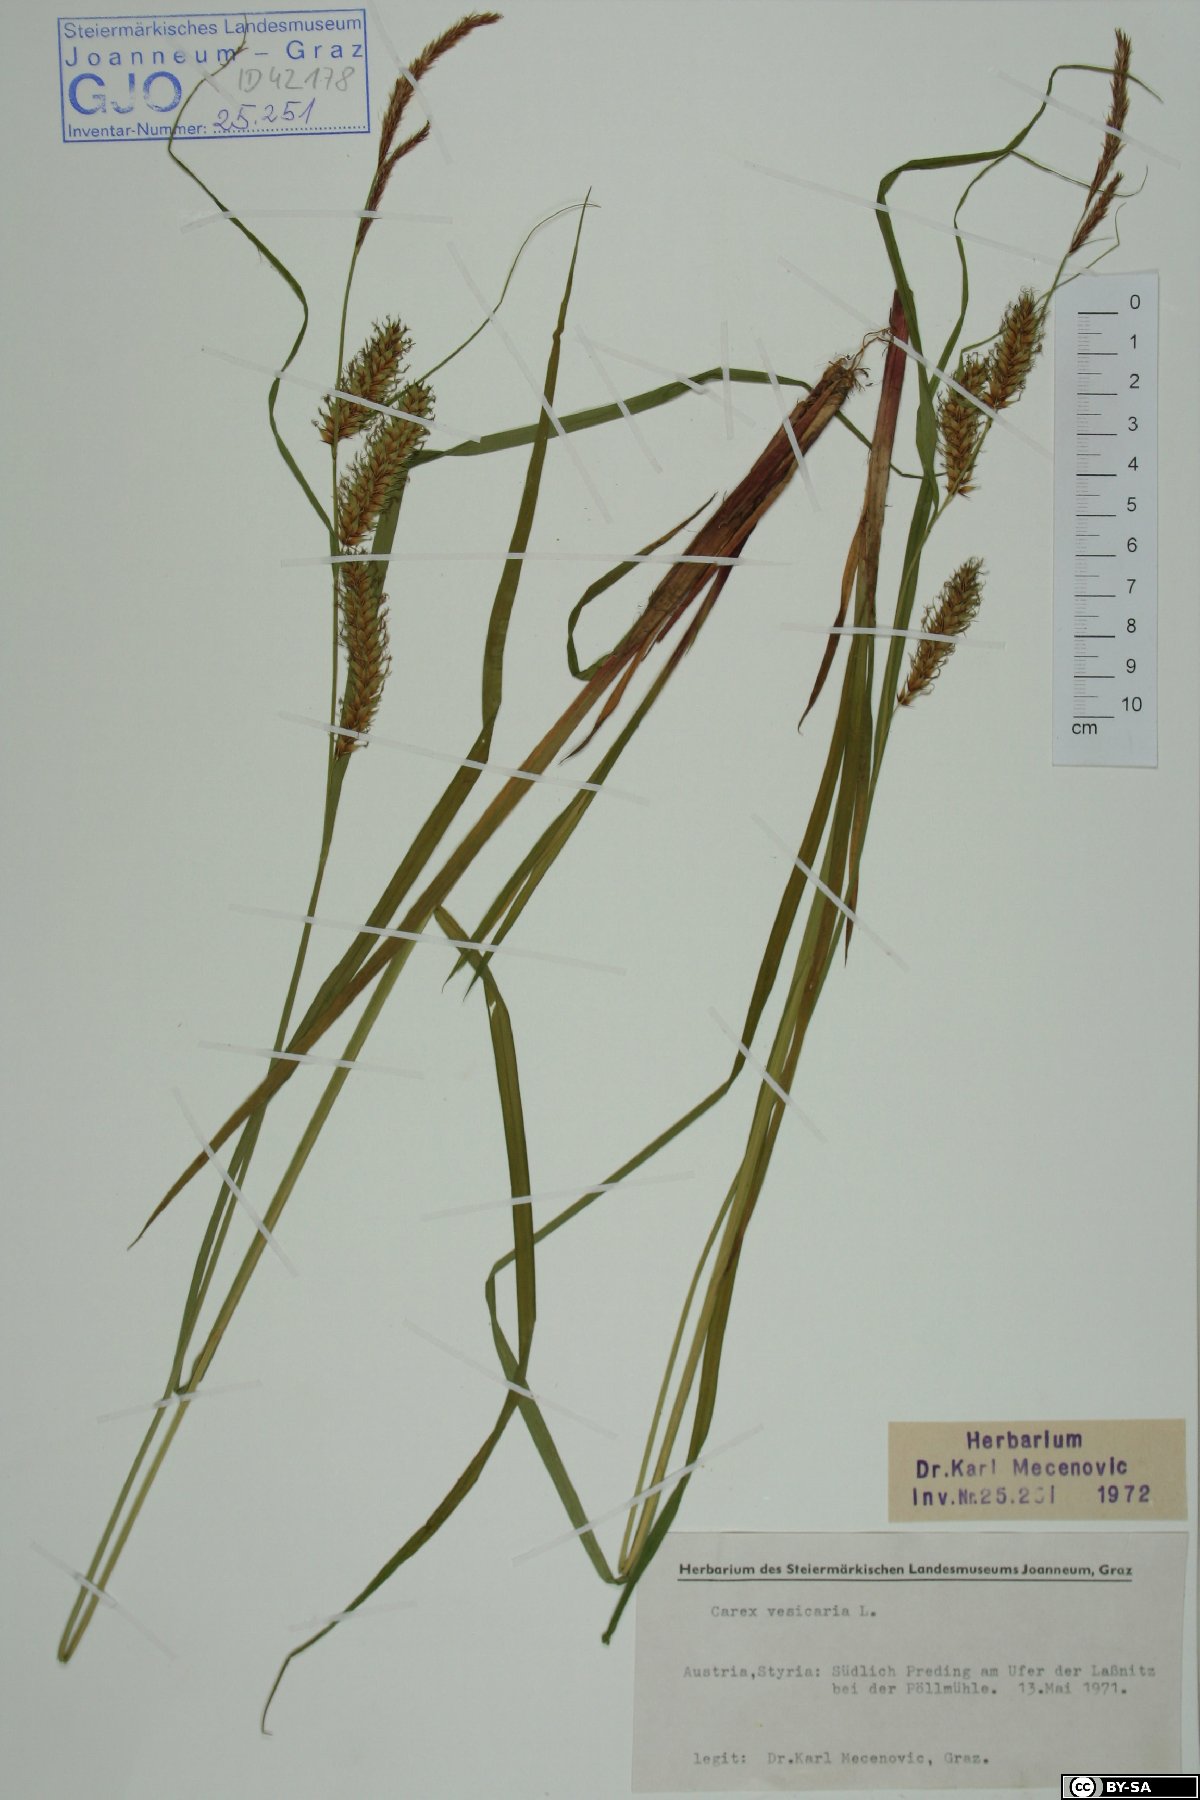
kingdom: Plantae
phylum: Tracheophyta
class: Liliopsida
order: Poales
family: Cyperaceae
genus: Carex
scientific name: Carex vesicaria
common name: Bladder-sedge
